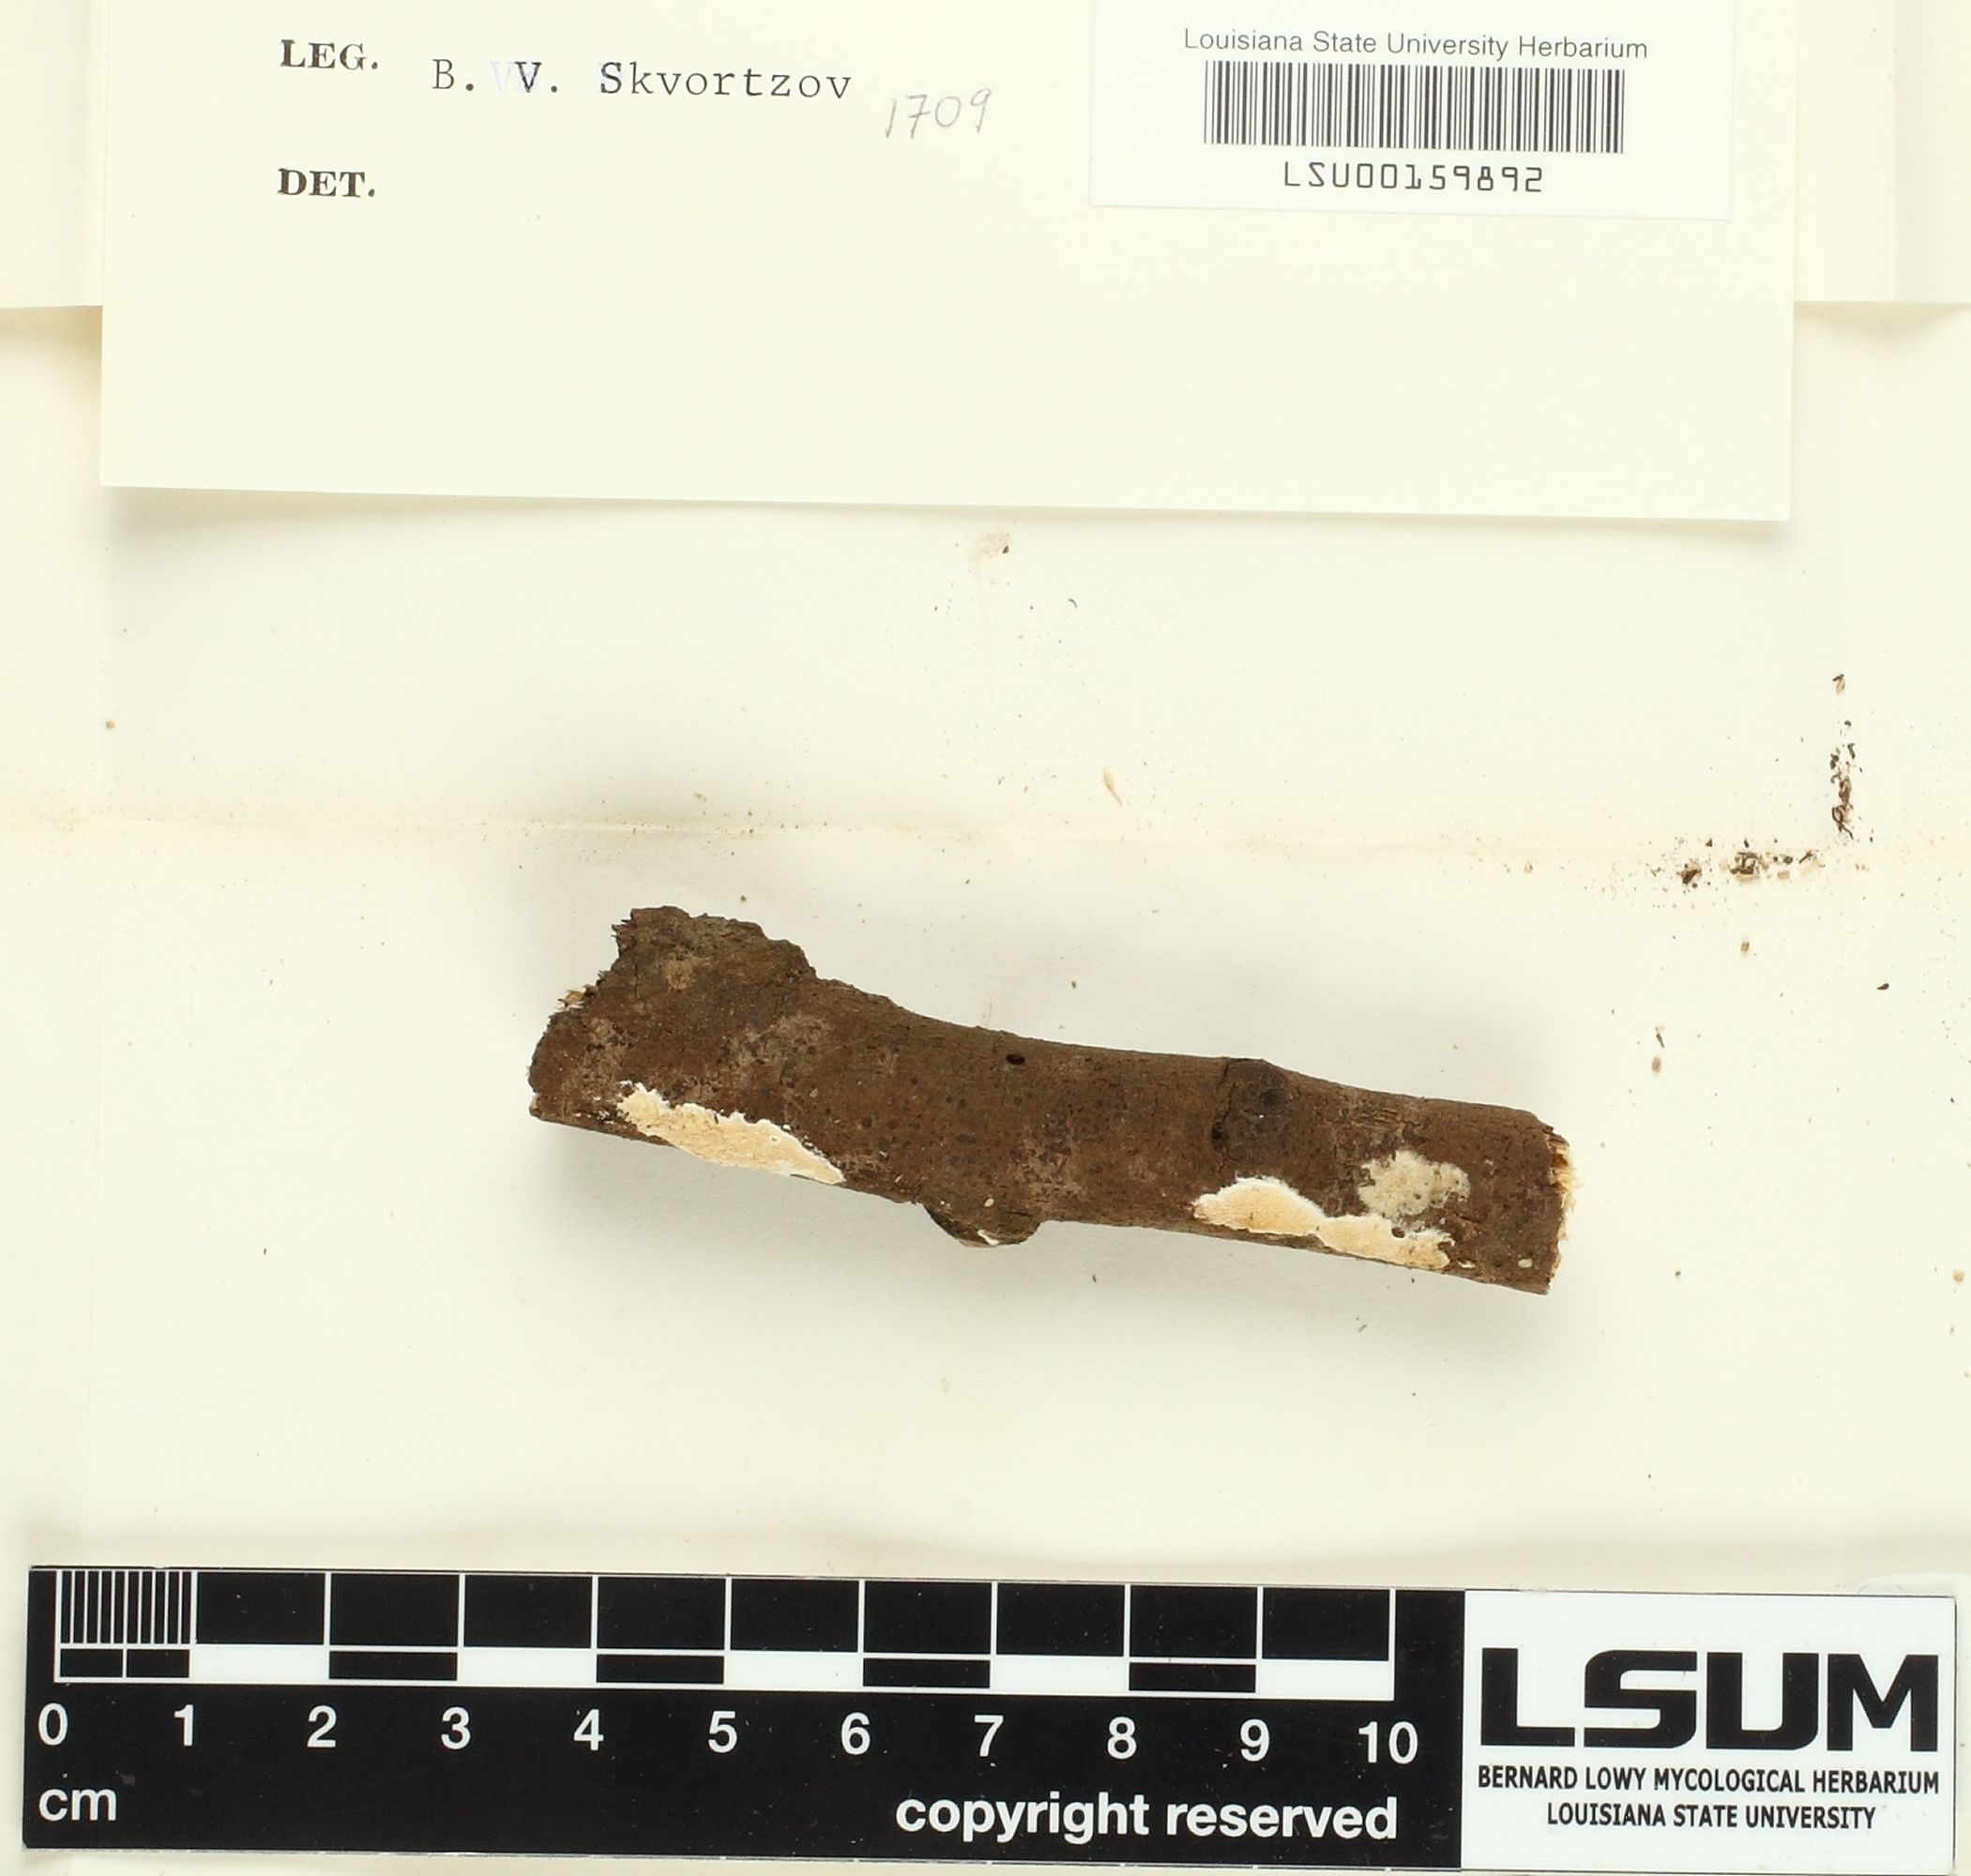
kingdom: Fungi
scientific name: Fungi
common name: Fungi
